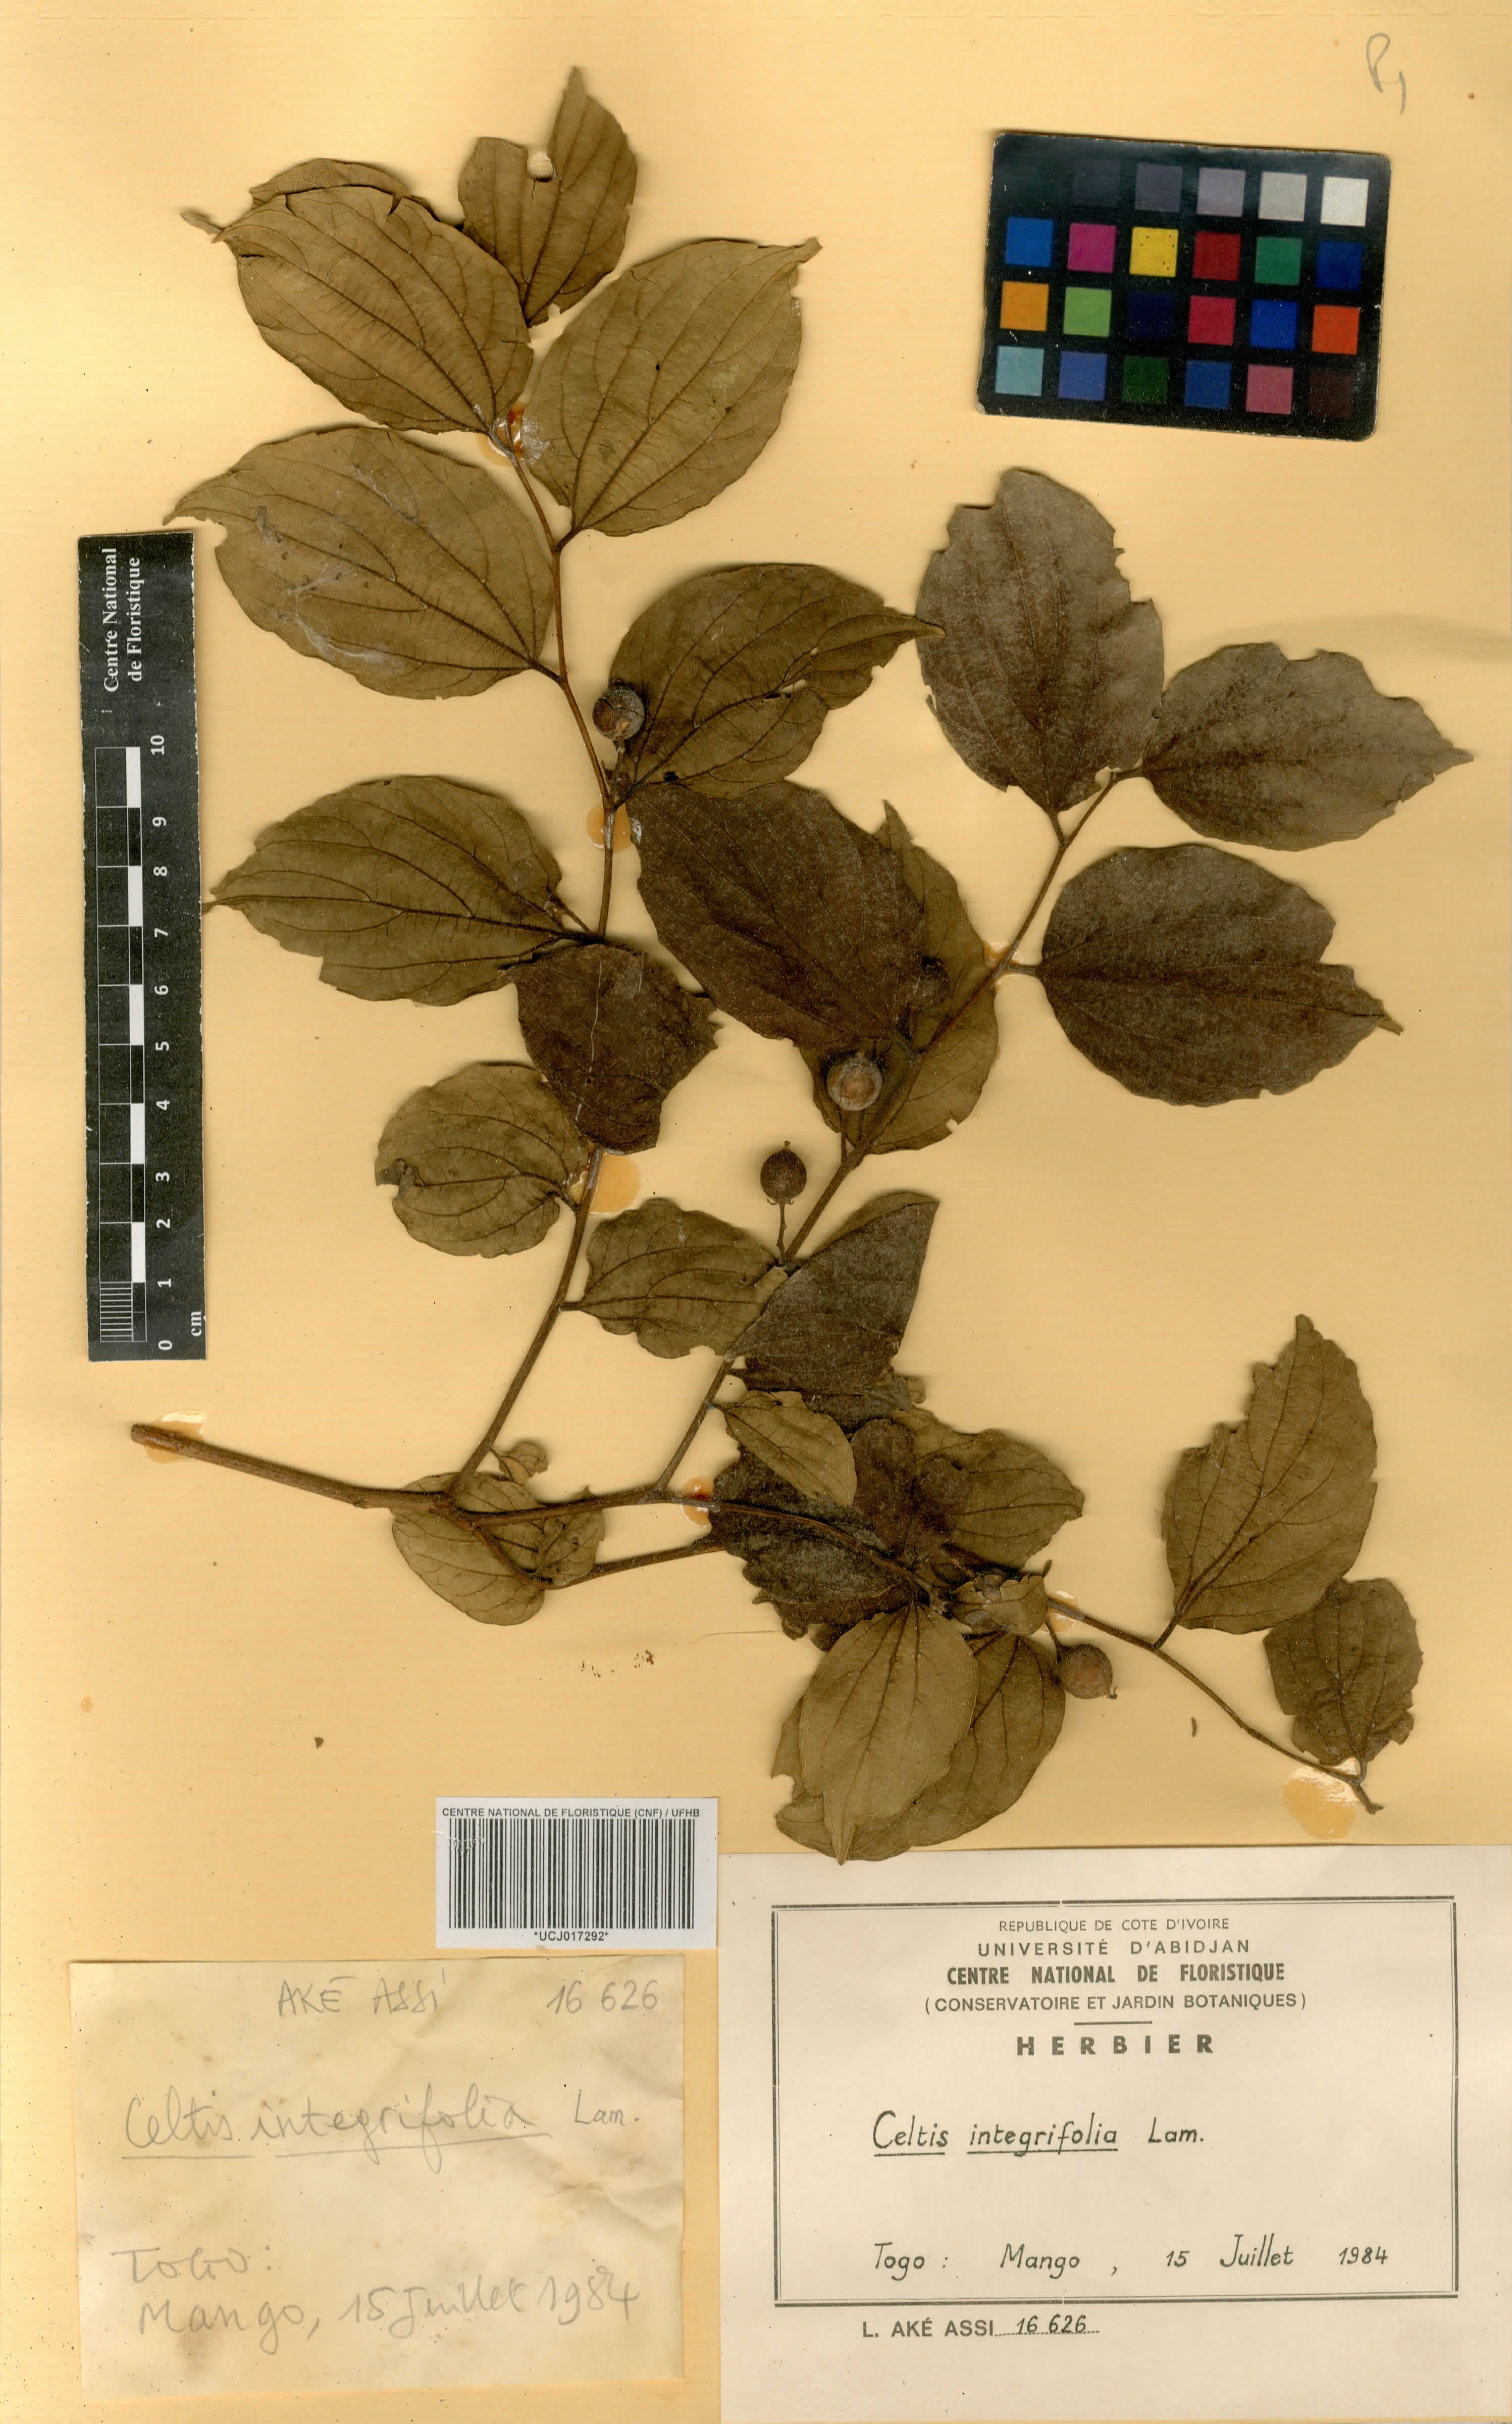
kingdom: Plantae
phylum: Tracheophyta
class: Magnoliopsida
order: Rosales
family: Cannabaceae
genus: Celtis
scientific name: Celtis toka
